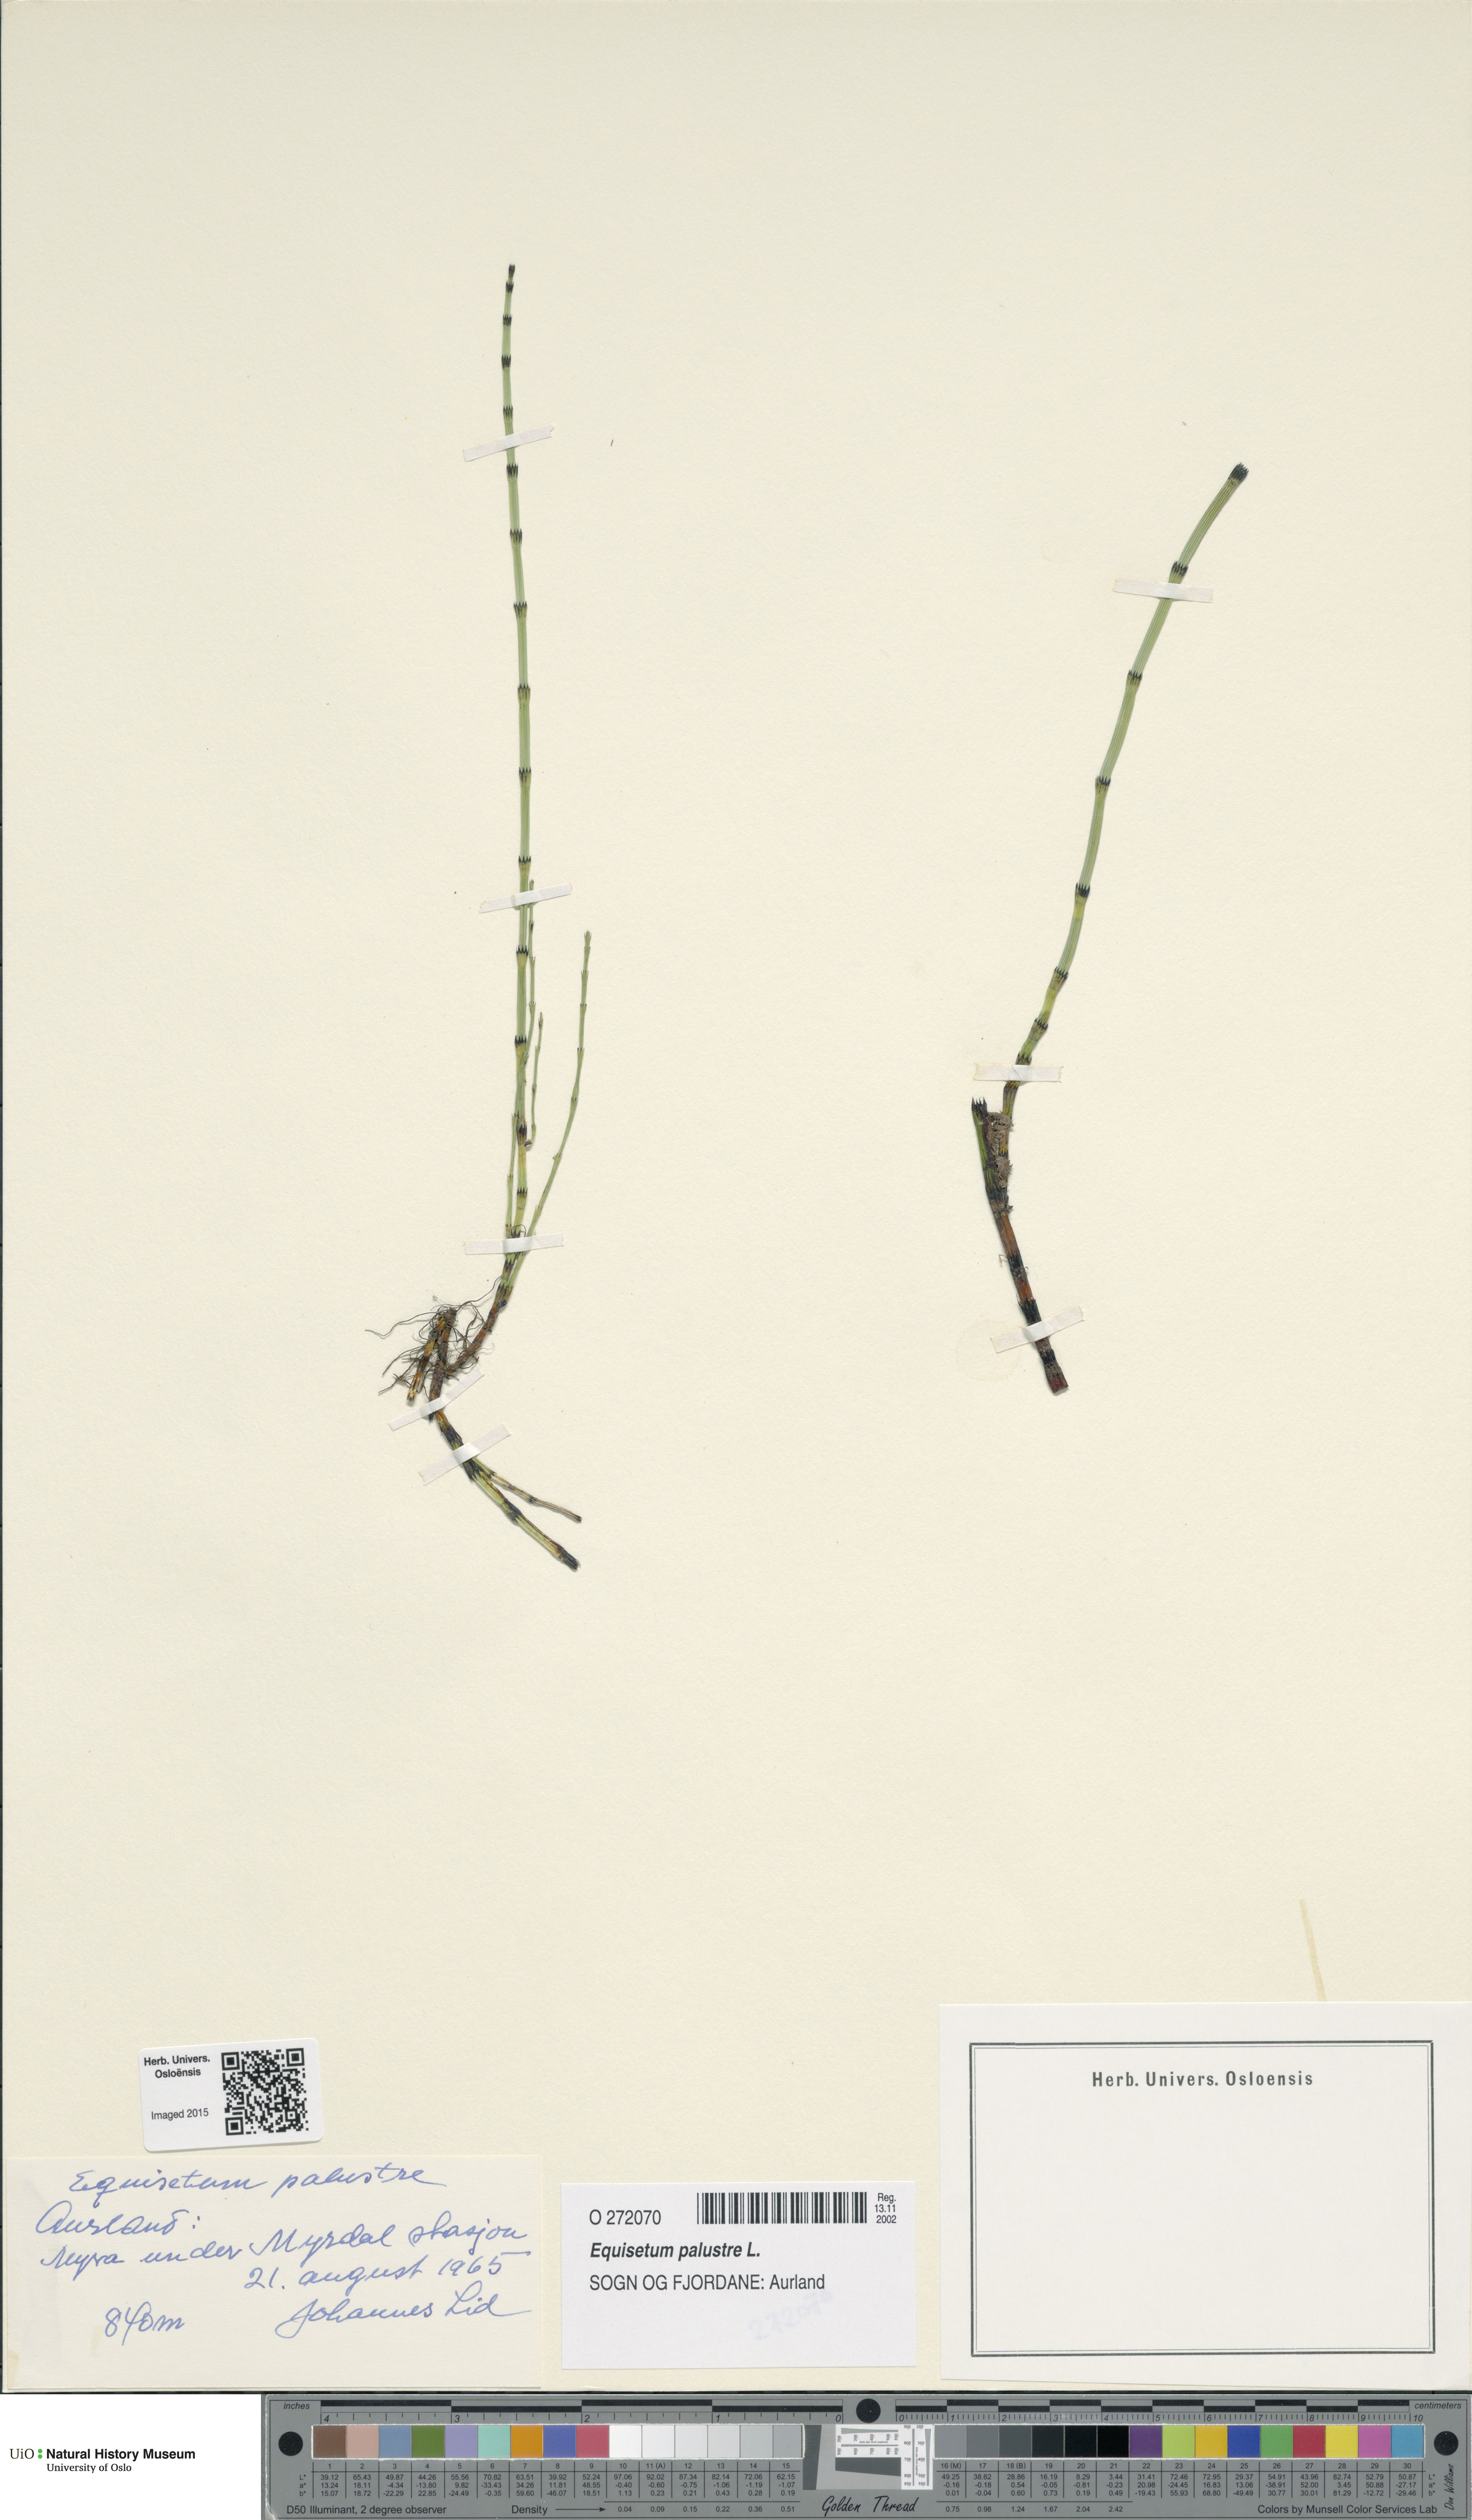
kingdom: Plantae
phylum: Tracheophyta
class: Polypodiopsida
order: Equisetales
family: Equisetaceae
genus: Equisetum
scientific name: Equisetum palustre
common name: Marsh horsetail
